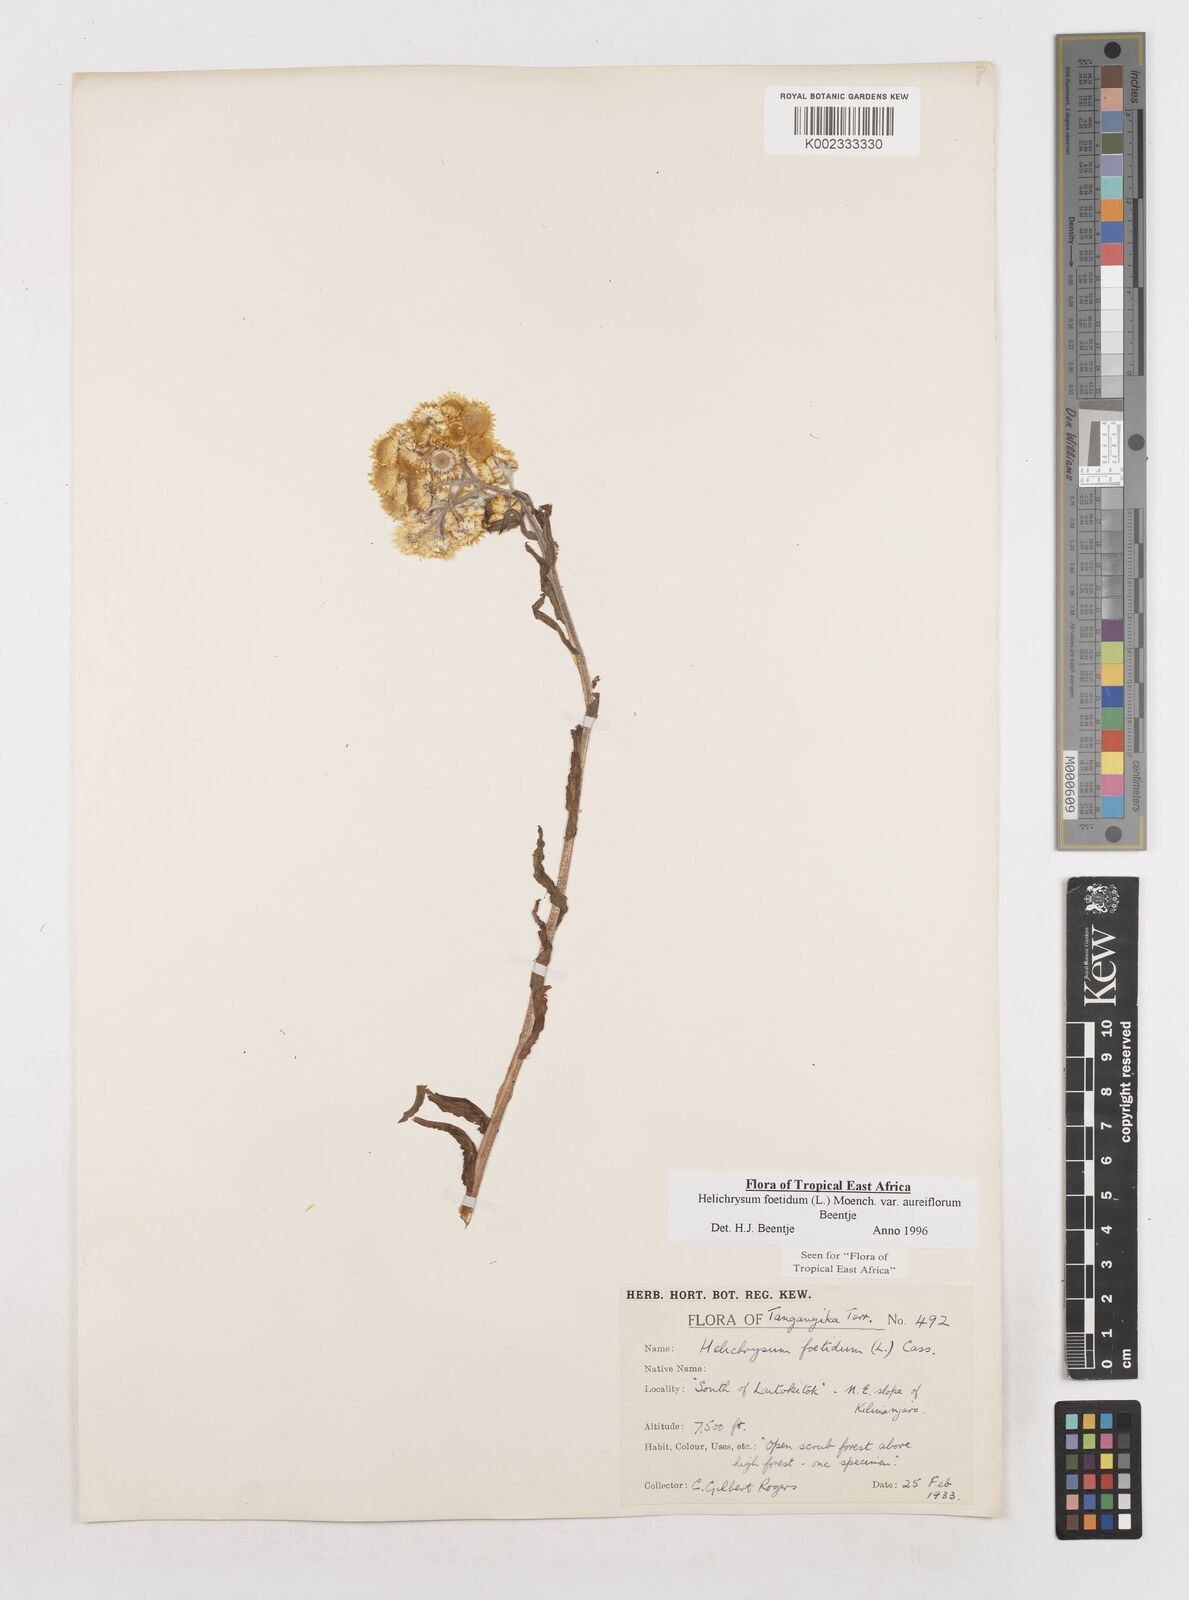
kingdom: Plantae
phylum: Tracheophyta
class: Magnoliopsida
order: Asterales
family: Asteraceae
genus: Helichrysum
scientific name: Helichrysum foetidum
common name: Stinking everlasting
